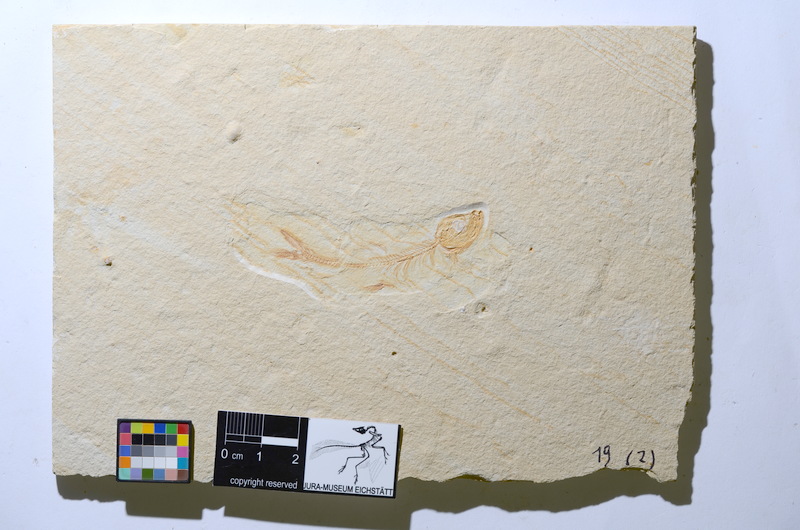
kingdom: Animalia
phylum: Chordata
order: Salmoniformes
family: Orthogonikleithridae
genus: Leptolepides
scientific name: Leptolepides
